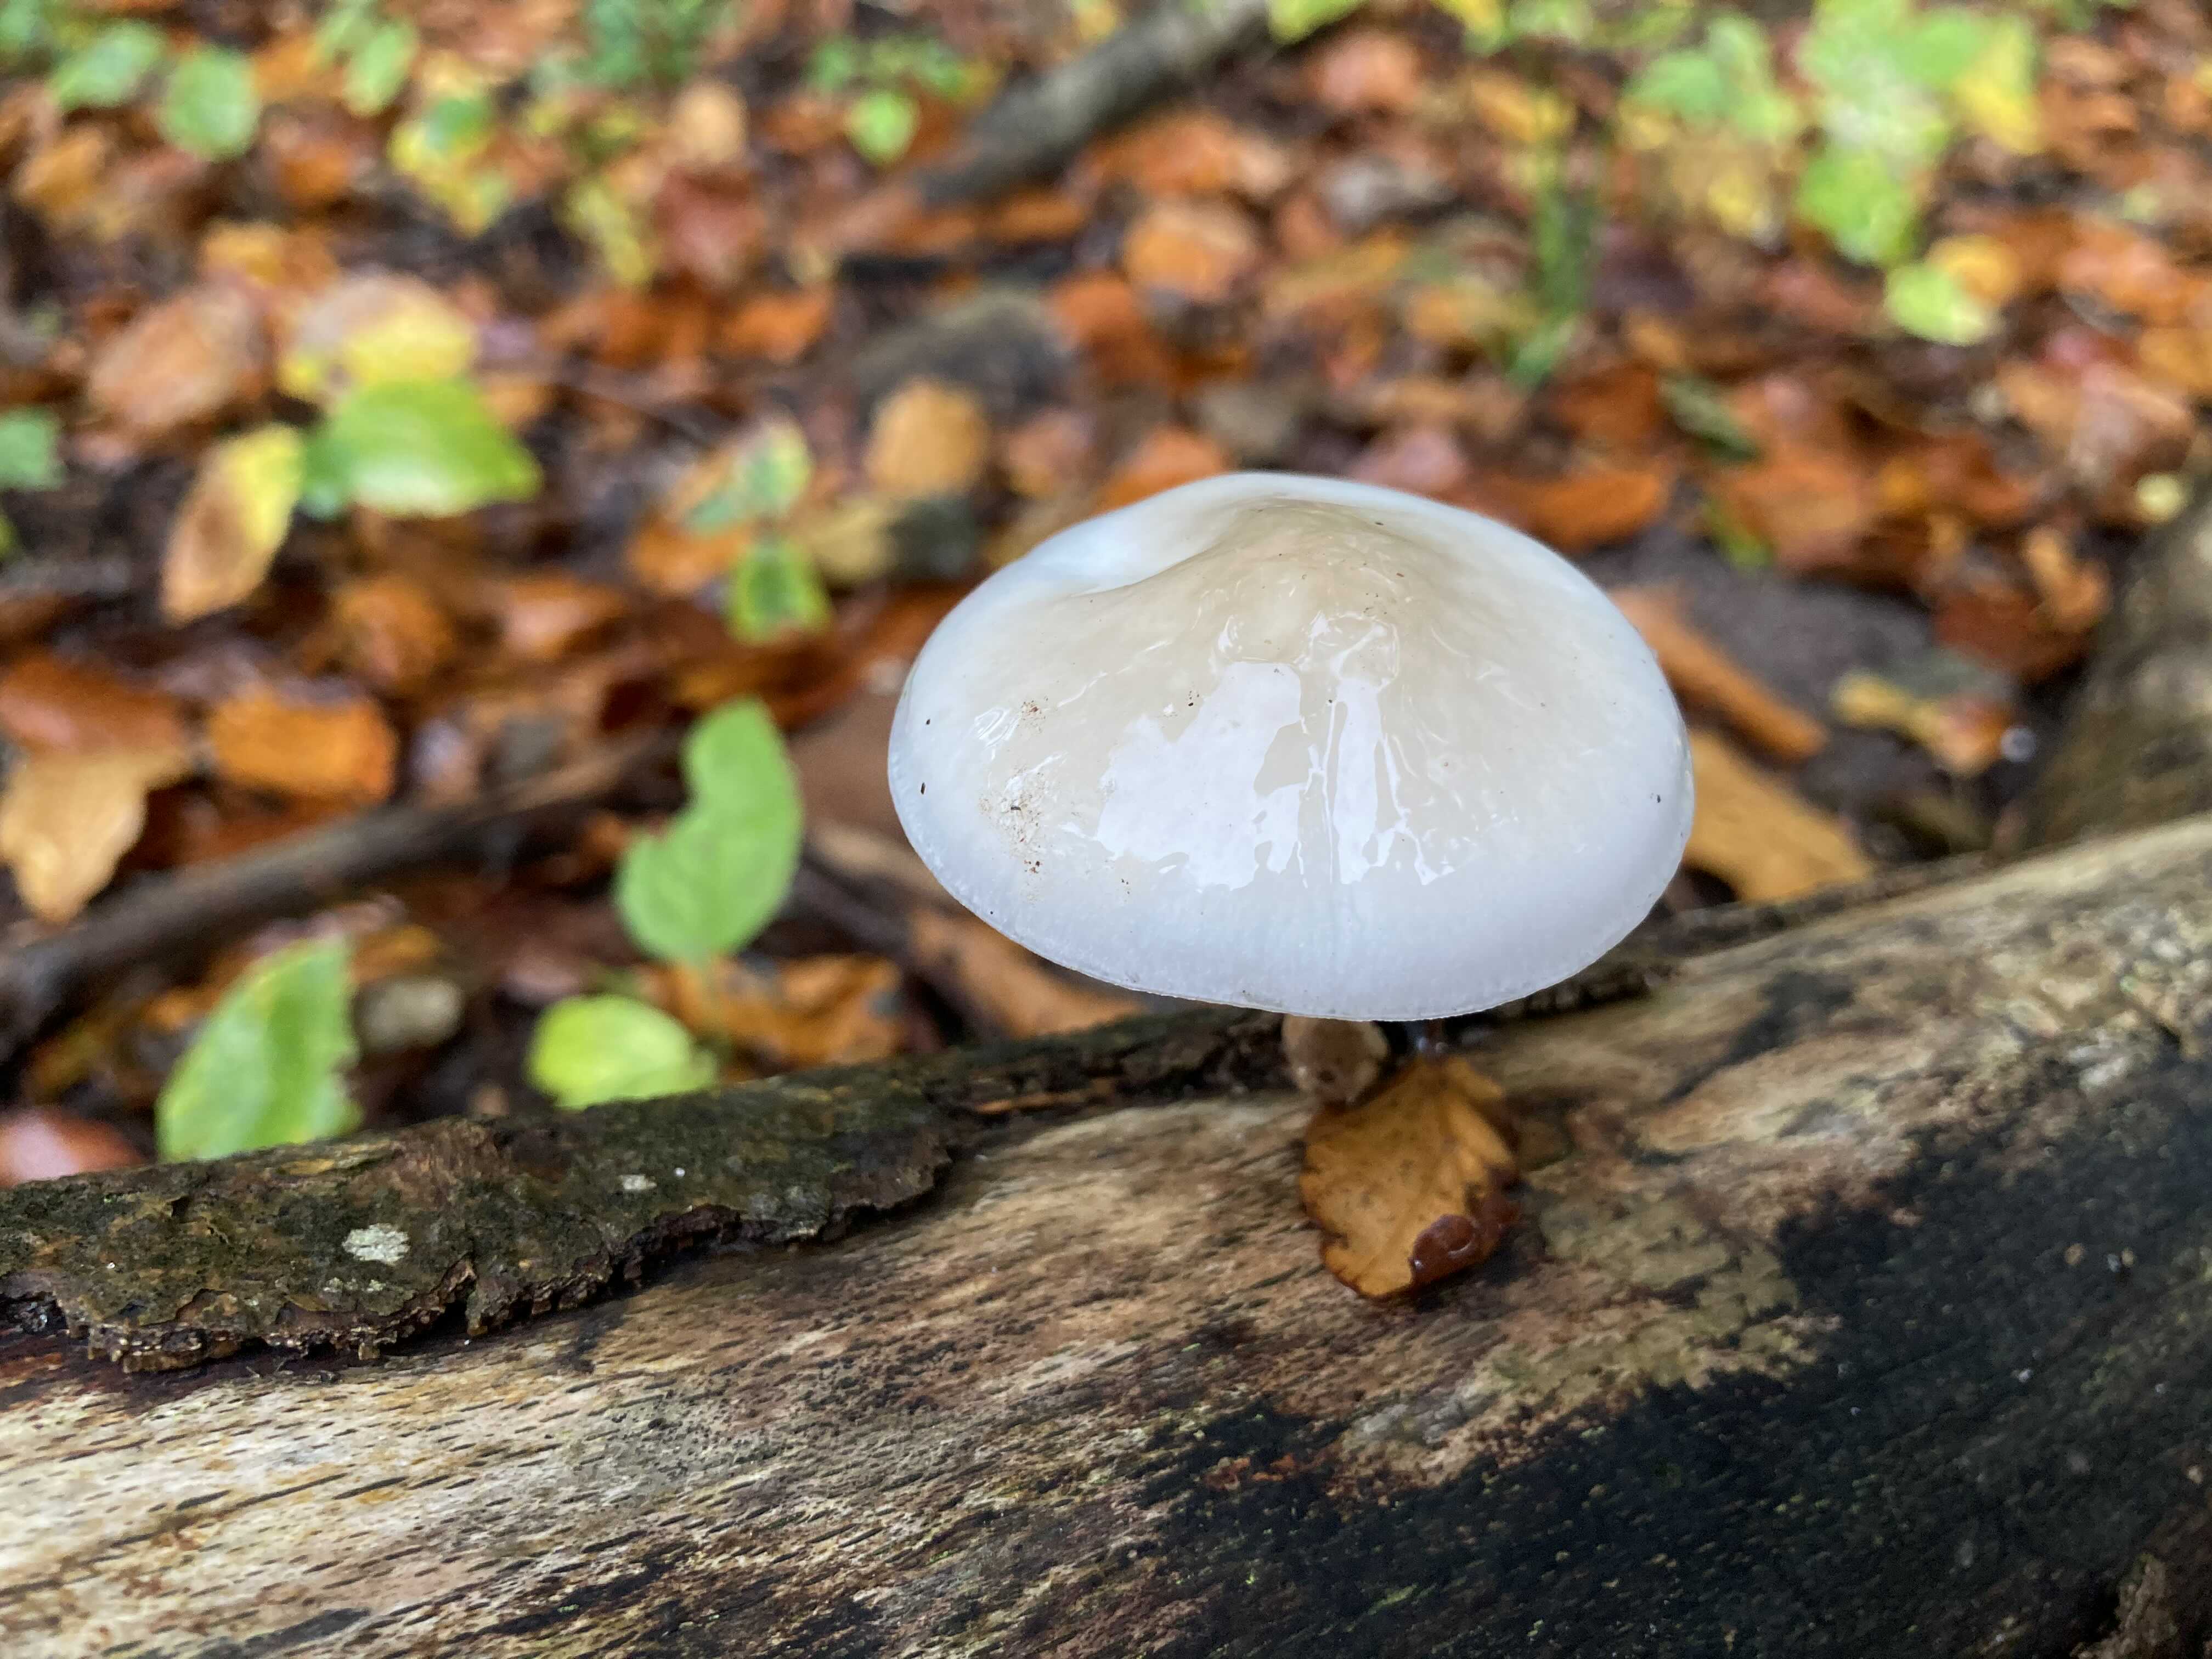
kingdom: Fungi
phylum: Basidiomycota
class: Agaricomycetes
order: Agaricales
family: Physalacriaceae
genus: Mucidula
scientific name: Mucidula mucida
